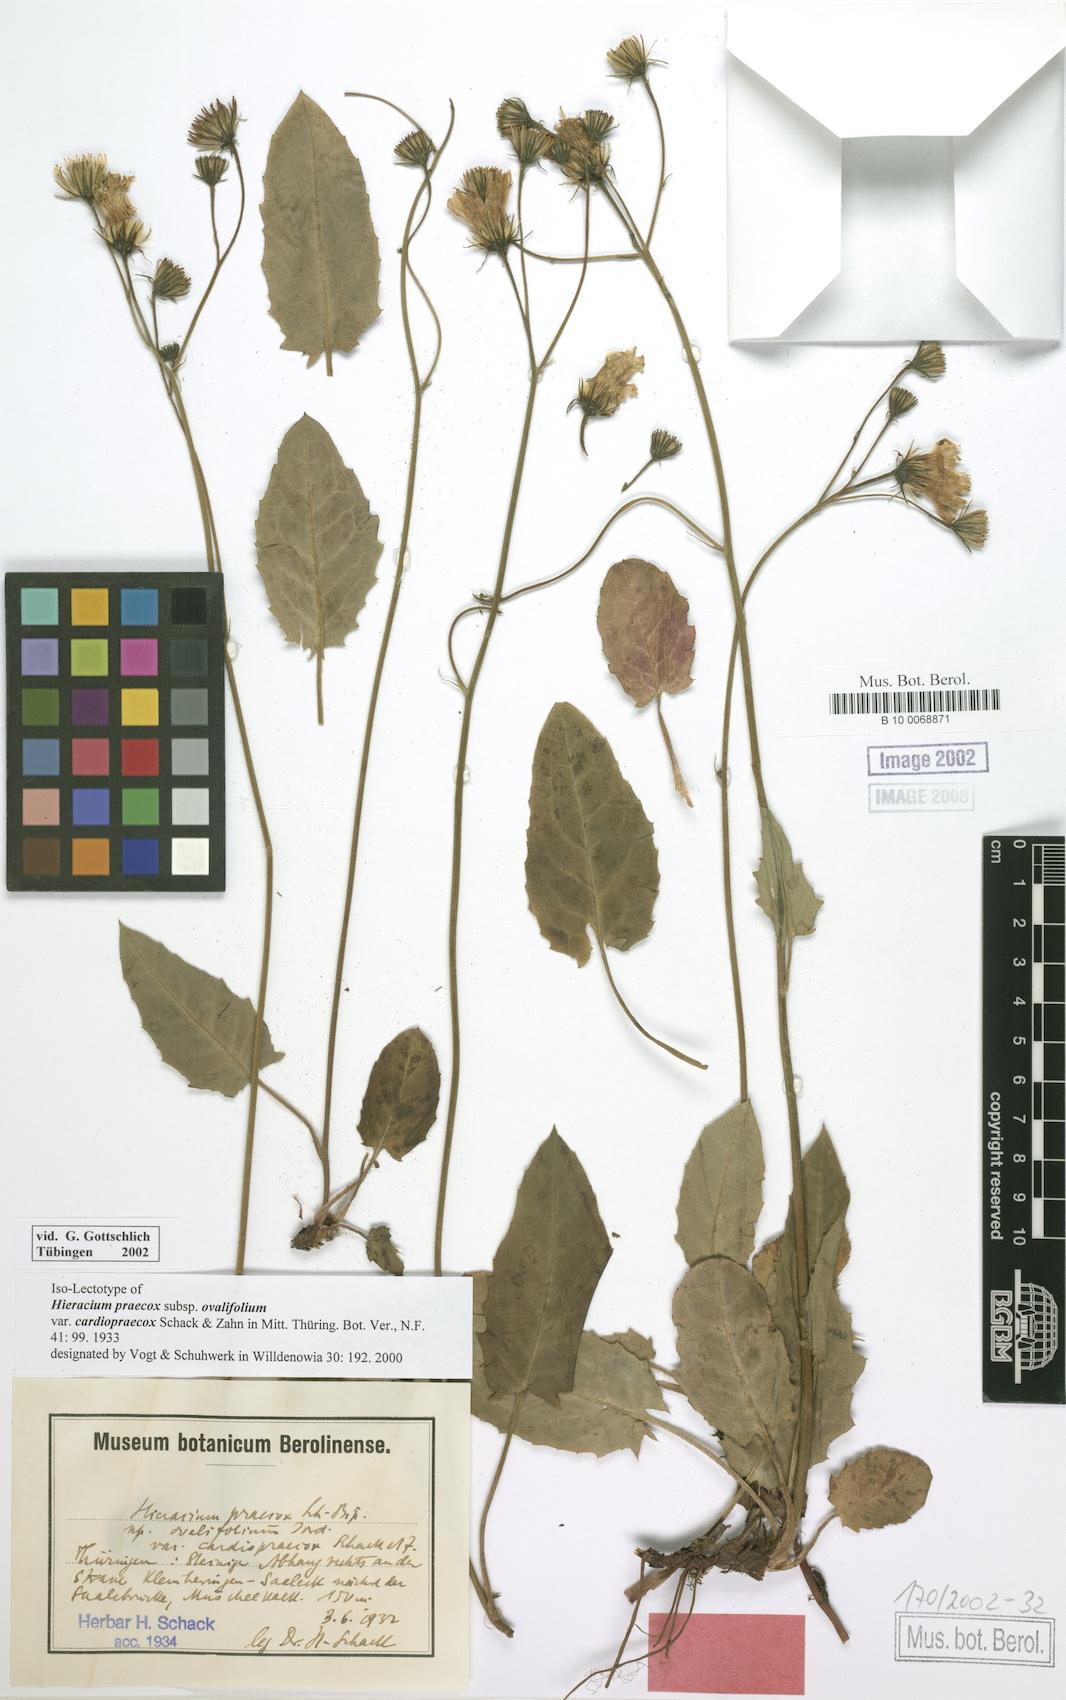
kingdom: Plantae
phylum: Tracheophyta
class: Magnoliopsida
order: Asterales
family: Asteraceae
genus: Hieracium
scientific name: Hieracium praecox
